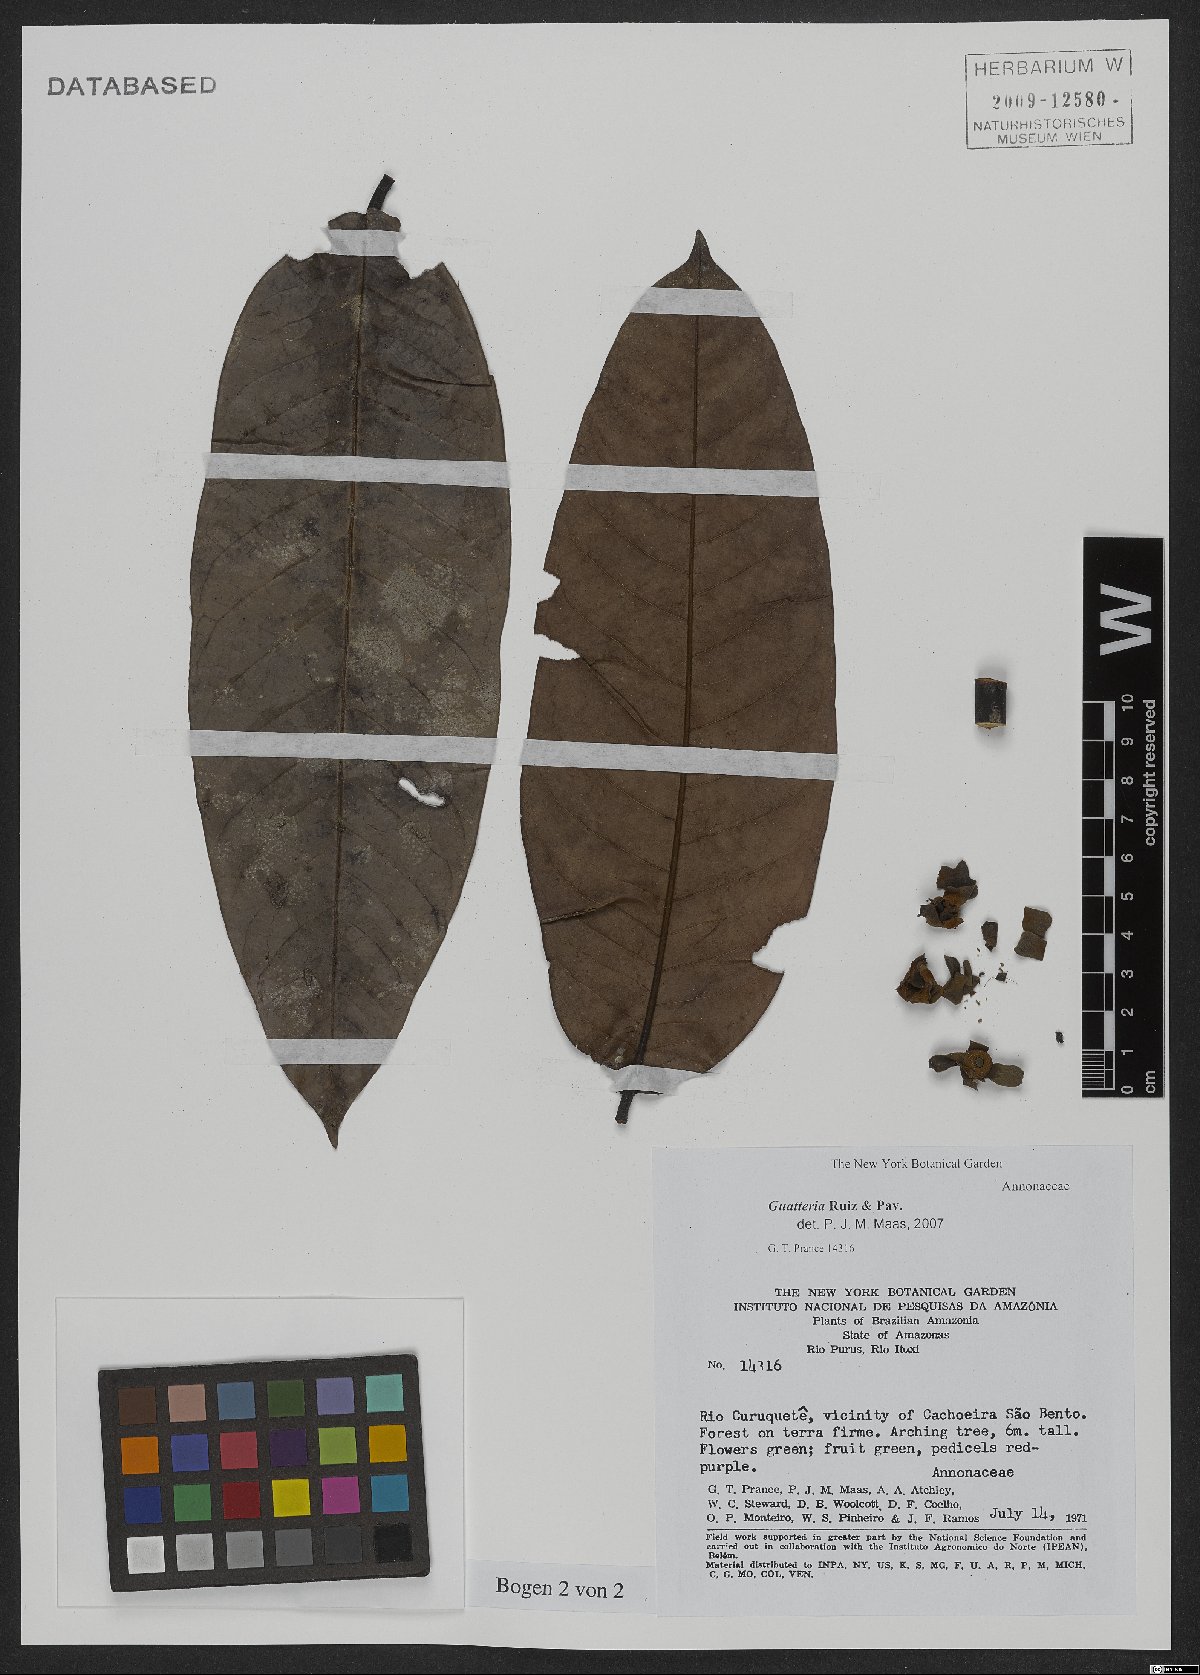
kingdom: Plantae
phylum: Tracheophyta
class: Magnoliopsida
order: Magnoliales
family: Annonaceae
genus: Guatteria
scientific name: Guatteria
